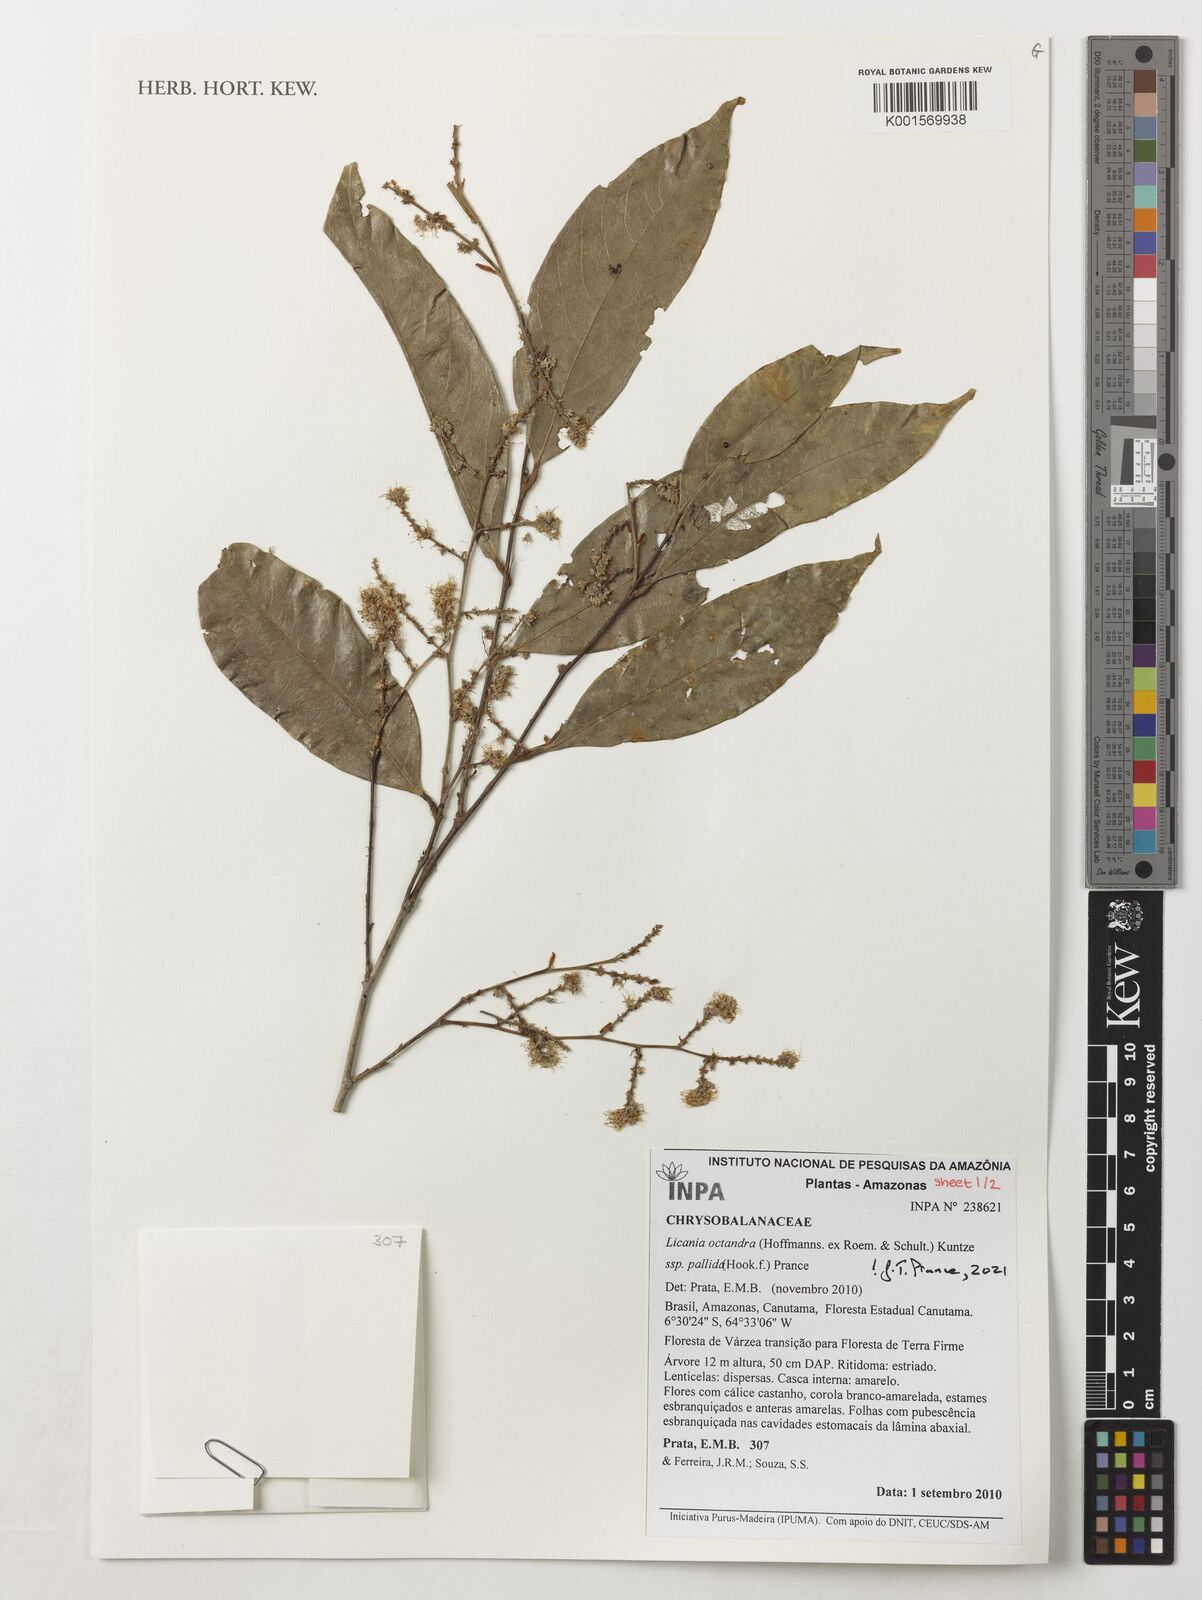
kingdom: Plantae
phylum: Tracheophyta
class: Magnoliopsida
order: Malpighiales
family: Chrysobalanaceae
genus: Licania
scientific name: Licania octandra
